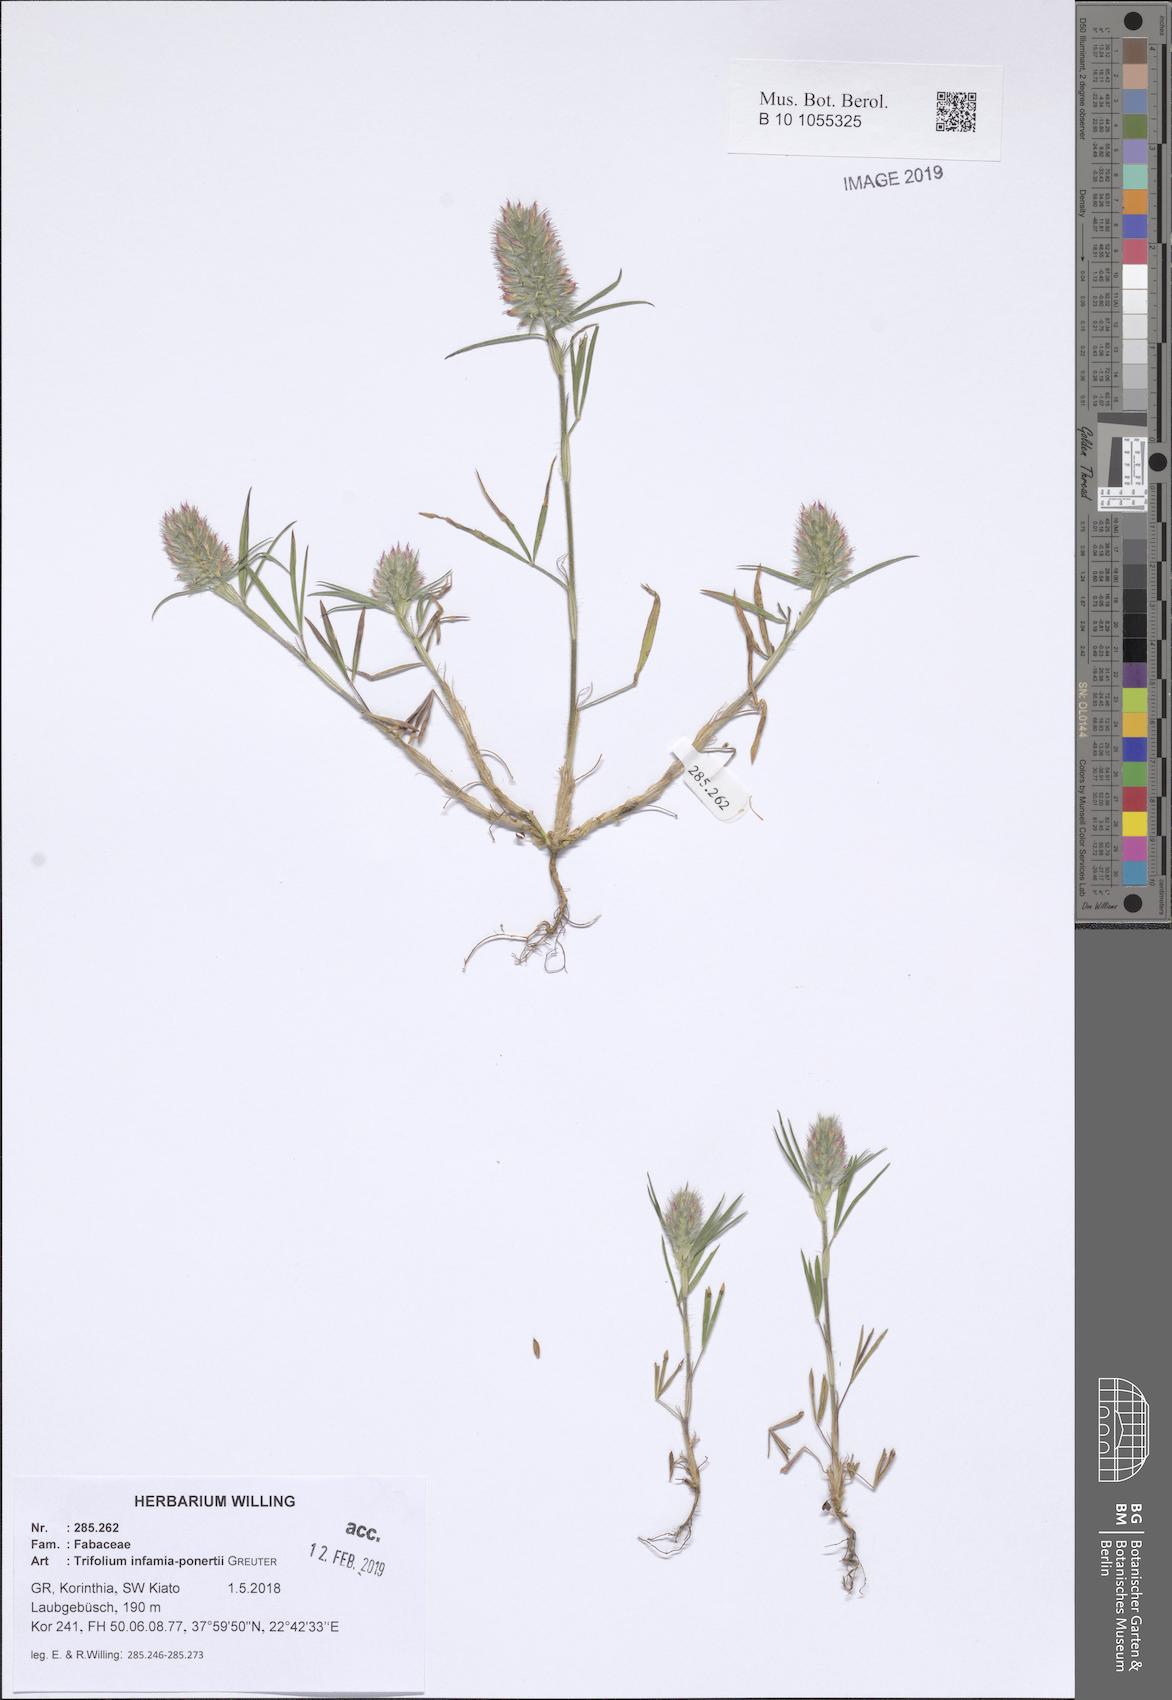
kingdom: Plantae
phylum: Tracheophyta
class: Magnoliopsida
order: Fabales
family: Fabaceae
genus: Trifolium
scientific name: Trifolium infamia-ponertii
